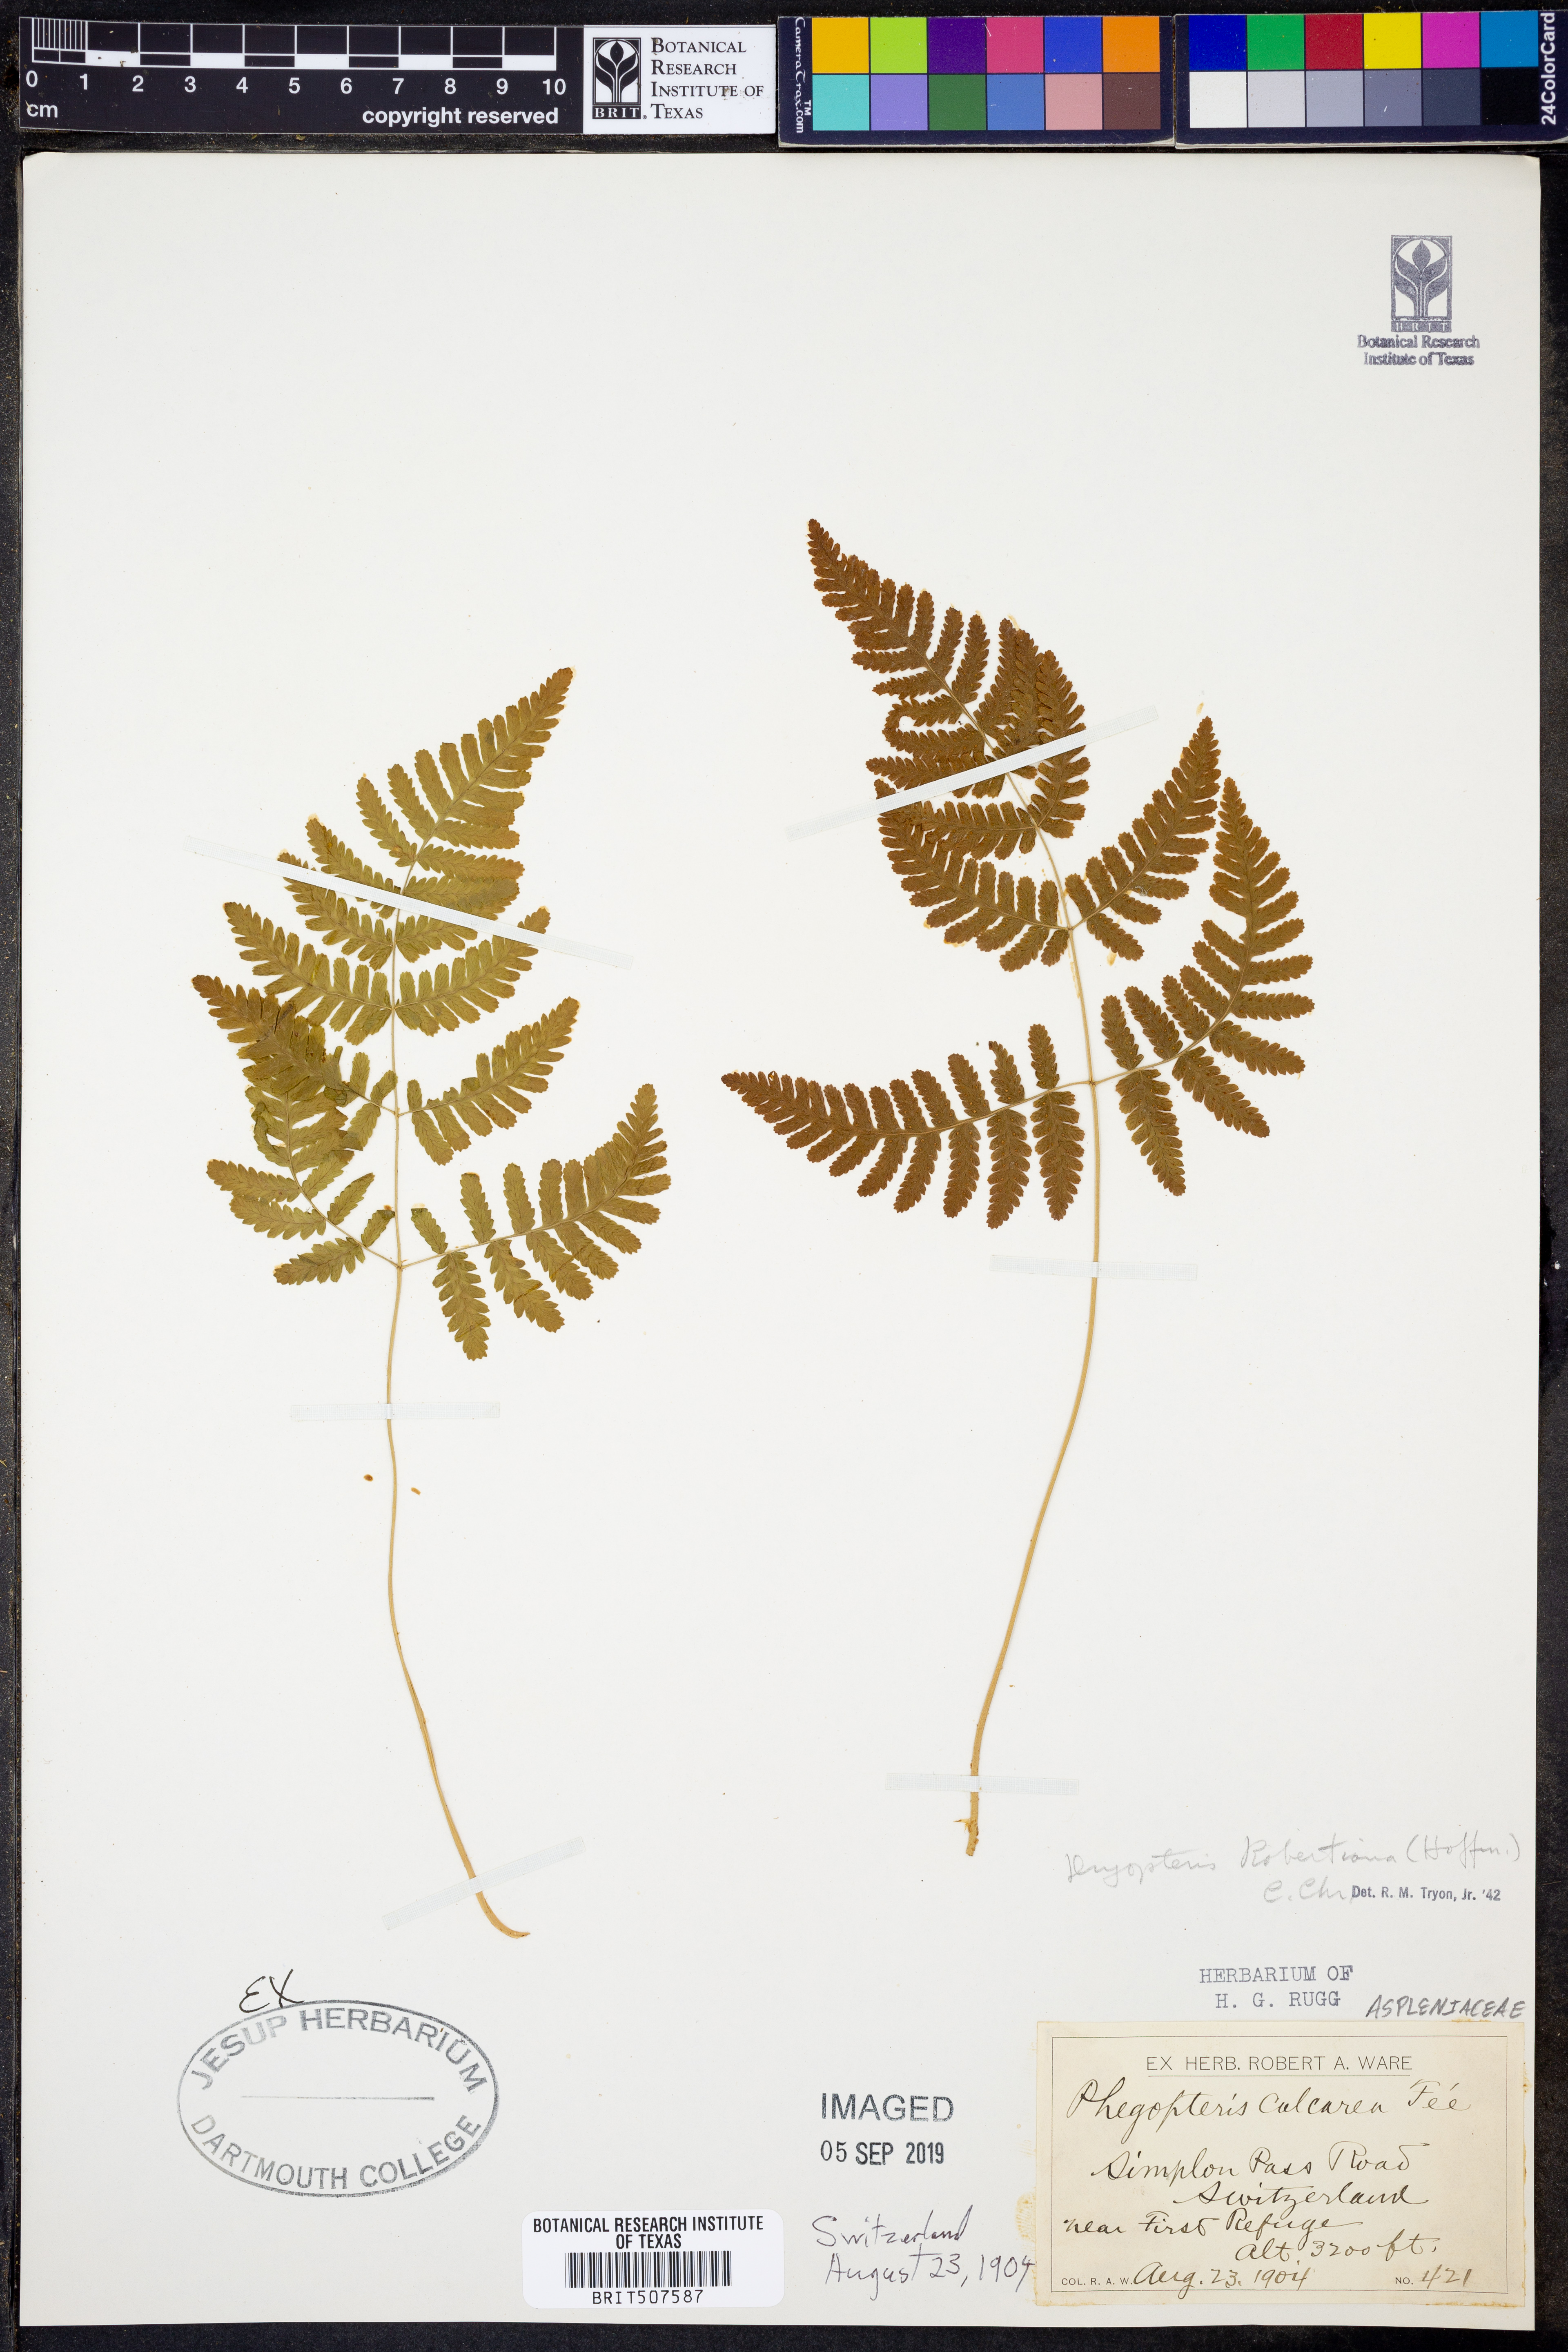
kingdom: Plantae
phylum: Tracheophyta
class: Polypodiopsida
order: Polypodiales
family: Cystopteridaceae
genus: Gymnocarpium
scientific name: Gymnocarpium robertianum
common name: Limestone fern
